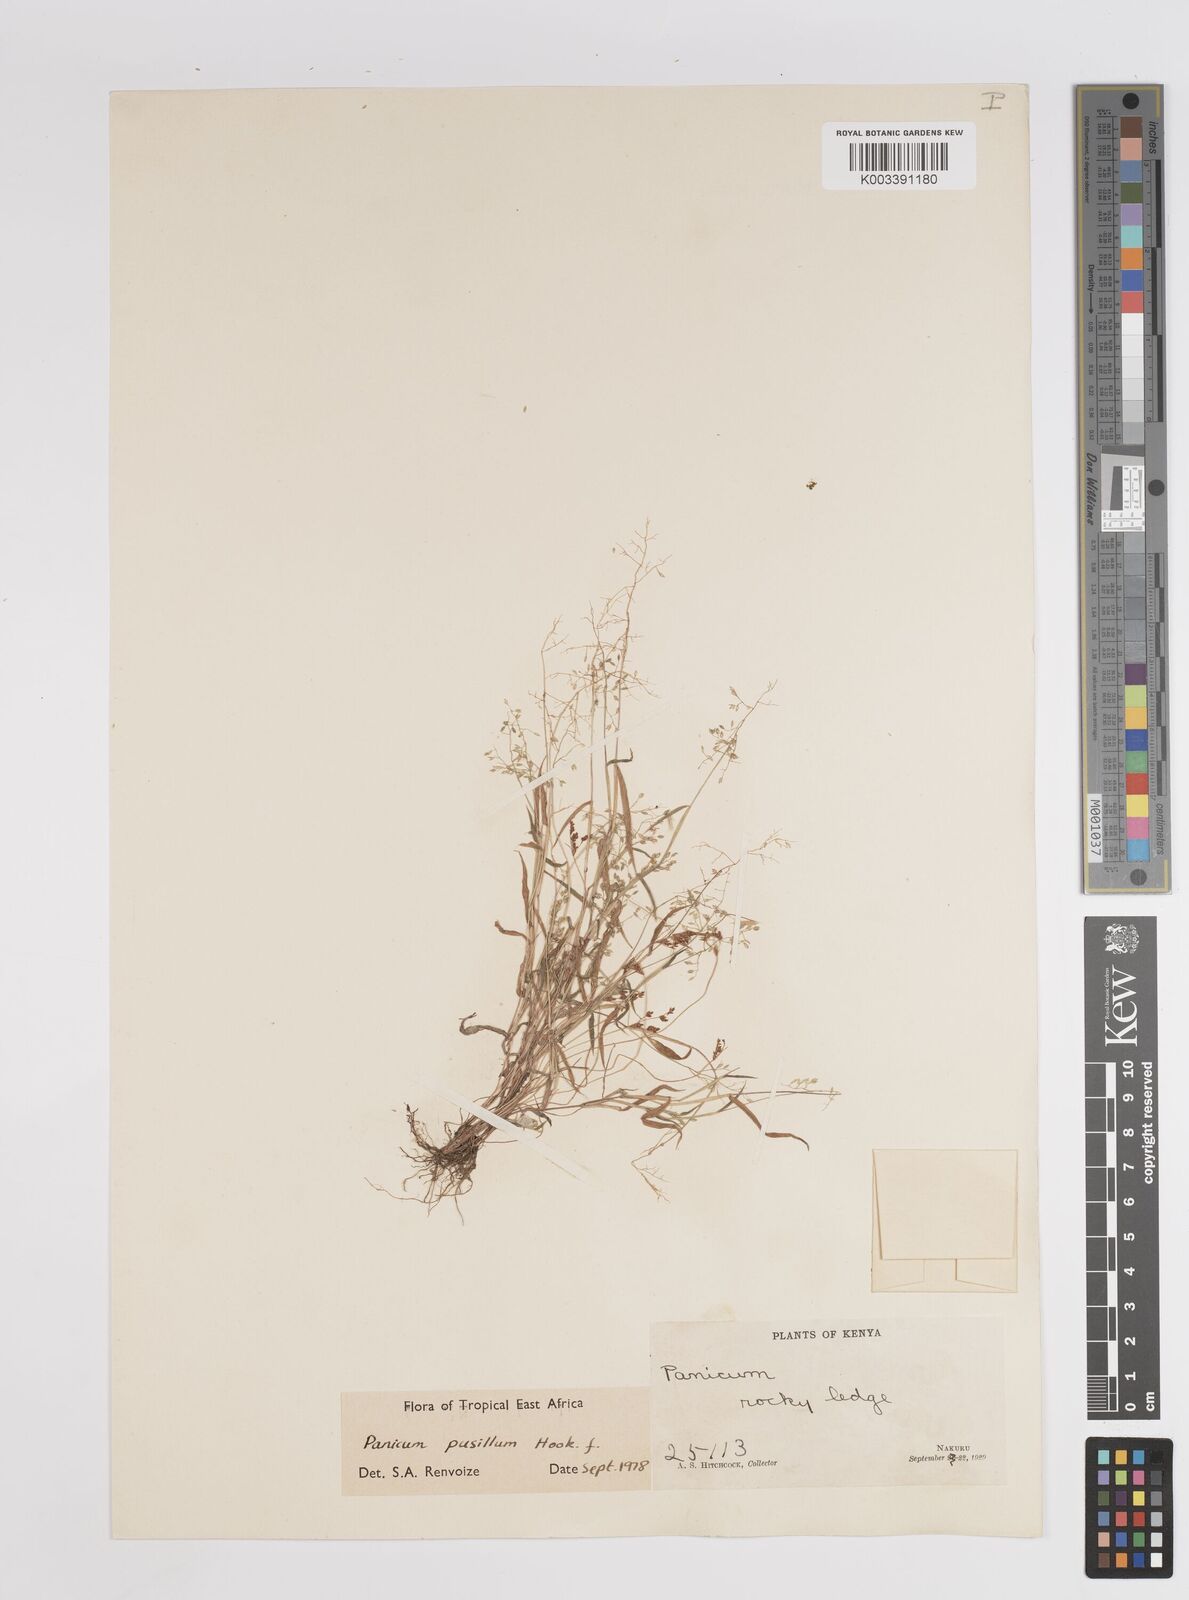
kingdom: Plantae
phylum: Tracheophyta
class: Liliopsida
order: Poales
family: Poaceae
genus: Panicum
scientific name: Panicum pusillum
